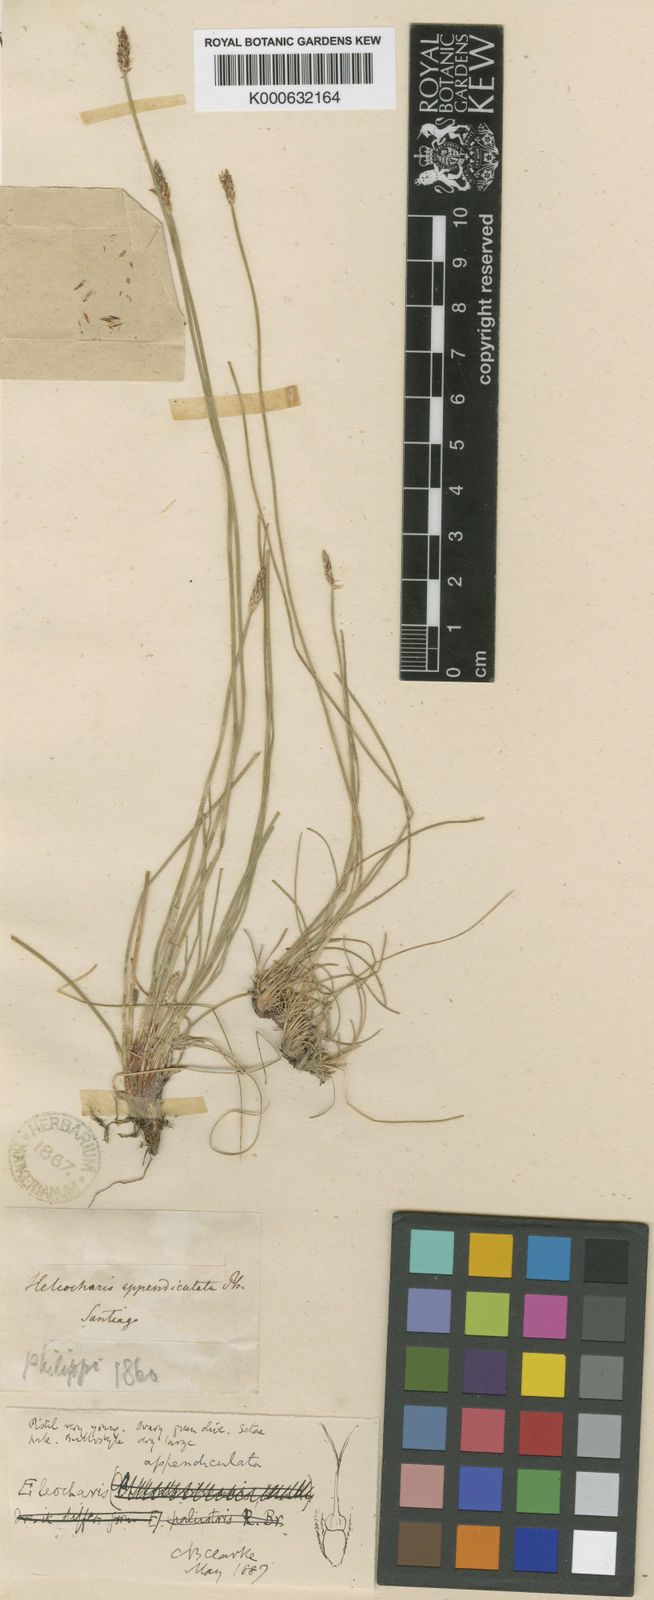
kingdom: Plantae
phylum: Tracheophyta
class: Liliopsida
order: Poales
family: Cyperaceae
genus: Eleocharis
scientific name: Eleocharis melanostachys
